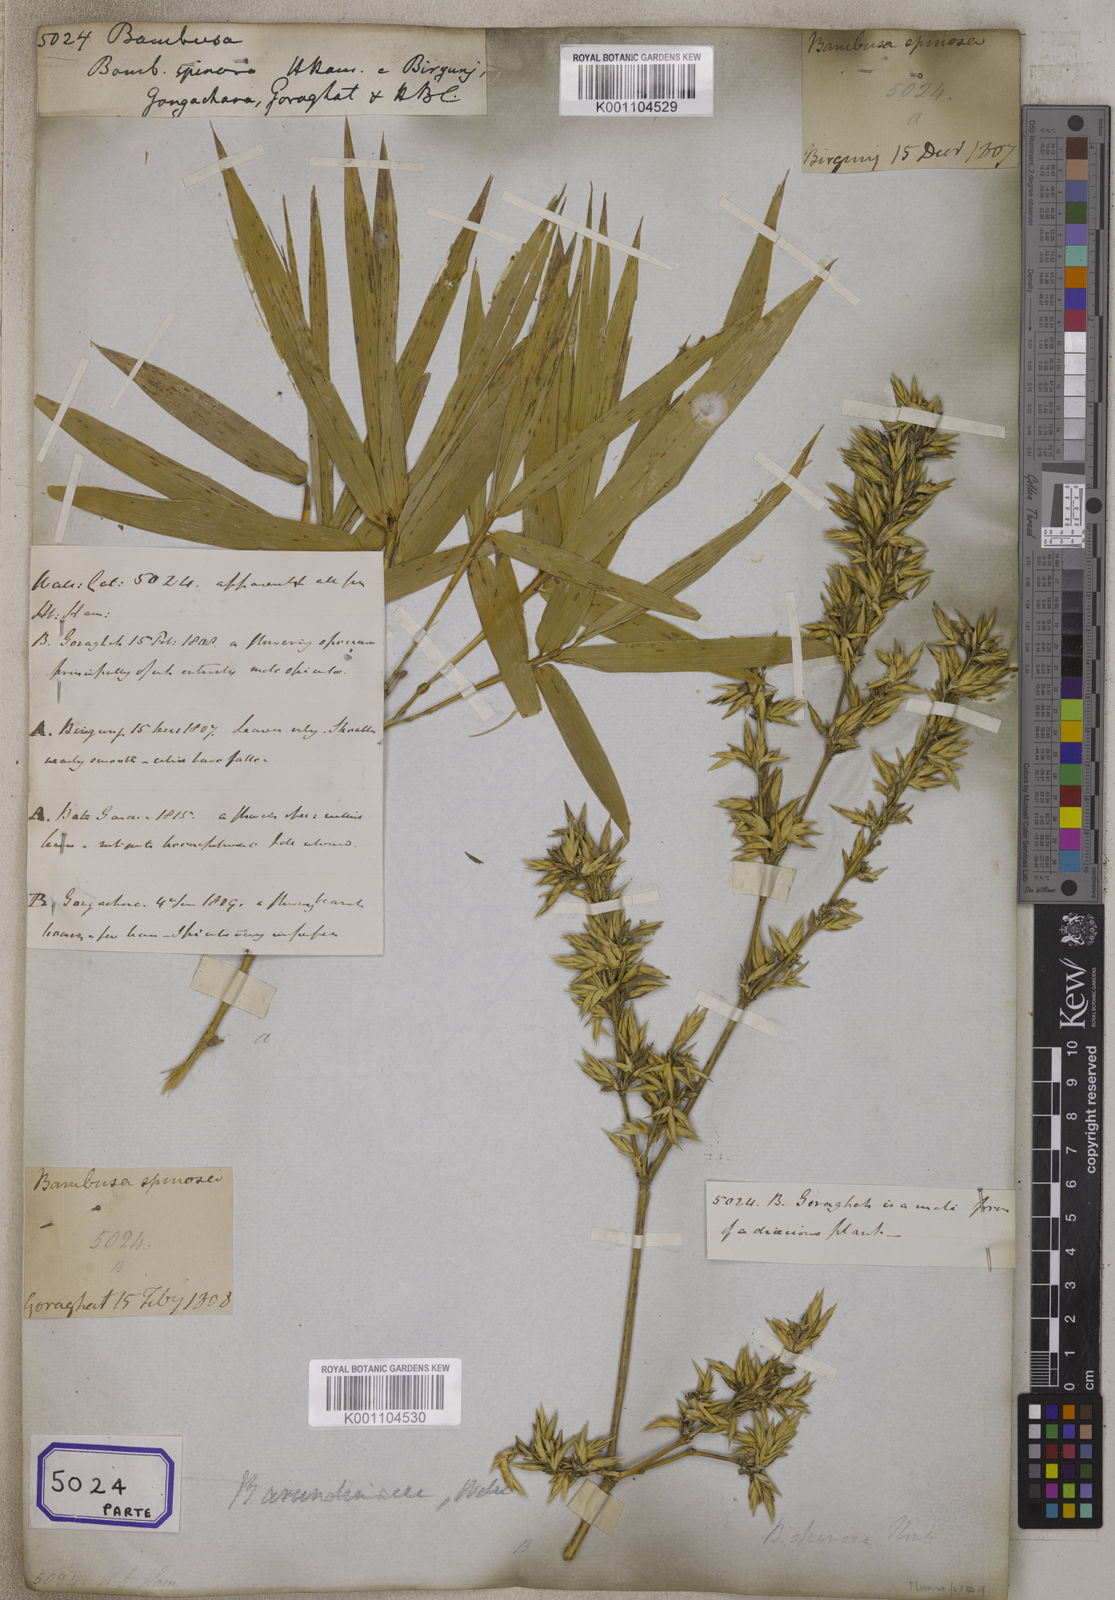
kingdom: Plantae
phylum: Tracheophyta
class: Liliopsida
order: Poales
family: Poaceae
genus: Bambusa
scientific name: Bambusa
